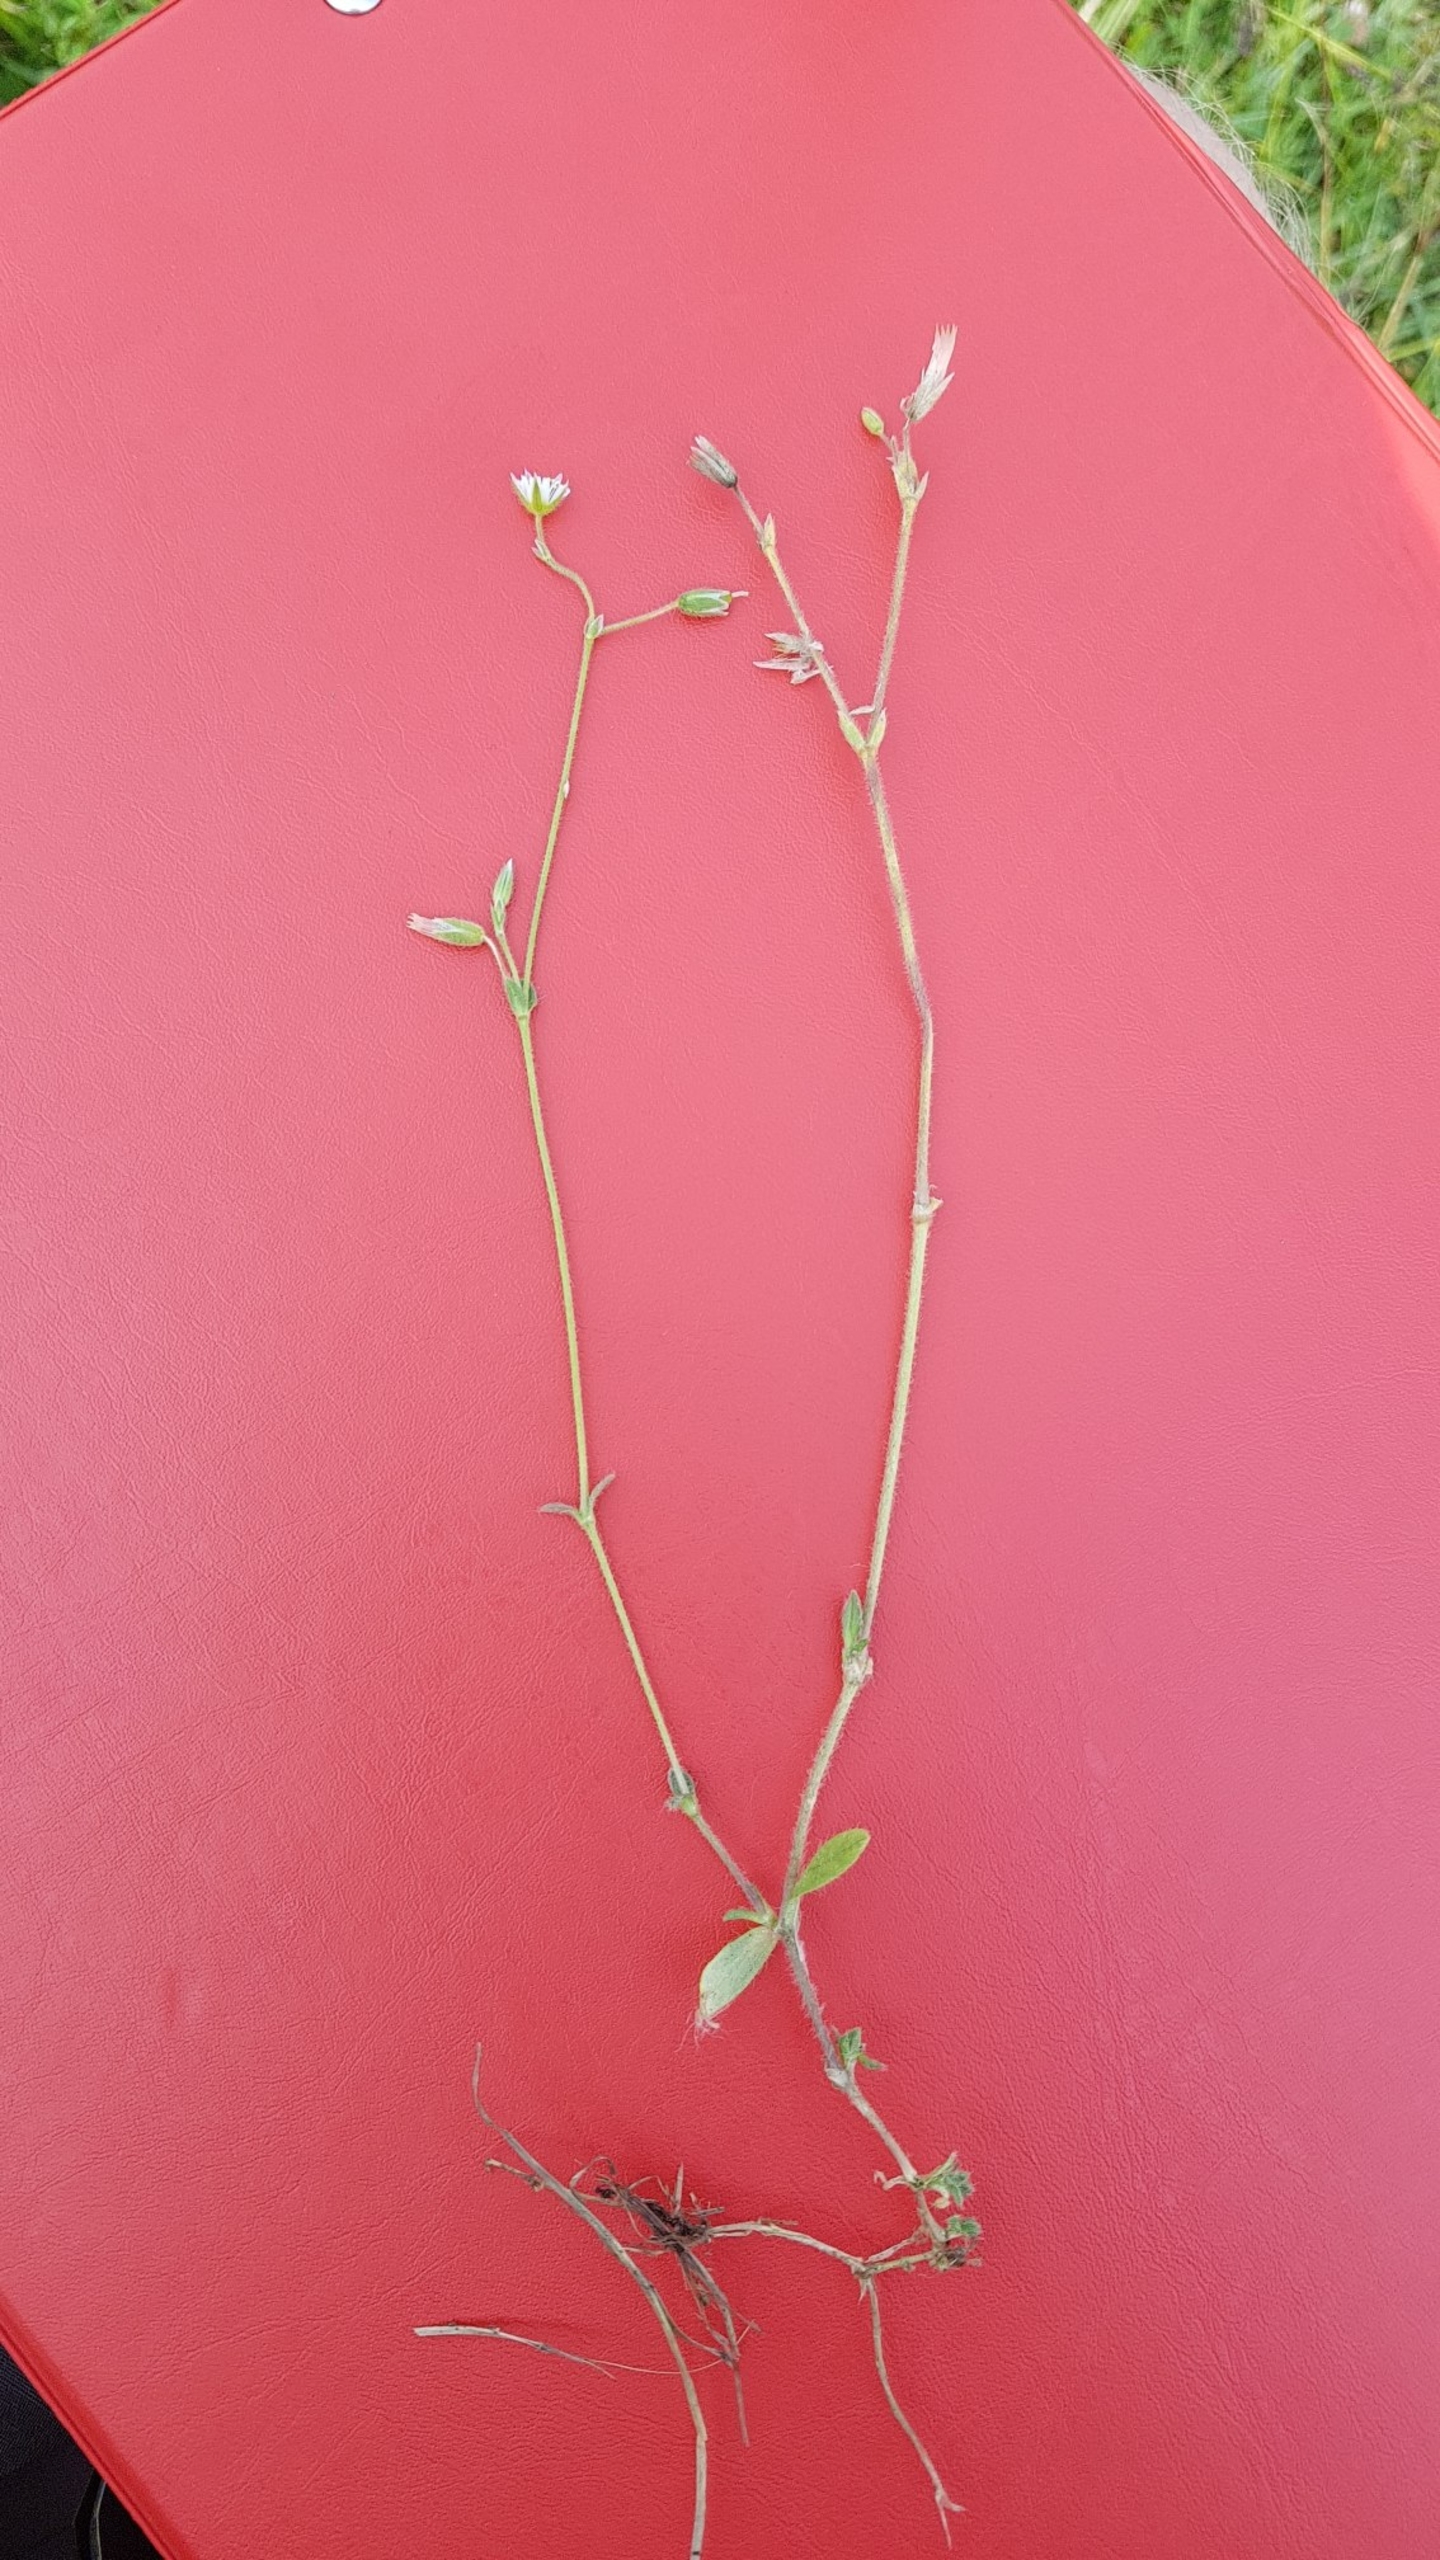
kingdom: Plantae
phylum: Tracheophyta
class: Magnoliopsida
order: Caryophyllales
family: Caryophyllaceae
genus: Cerastium
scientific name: Cerastium fontanum
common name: Almindelig hønsetarm
